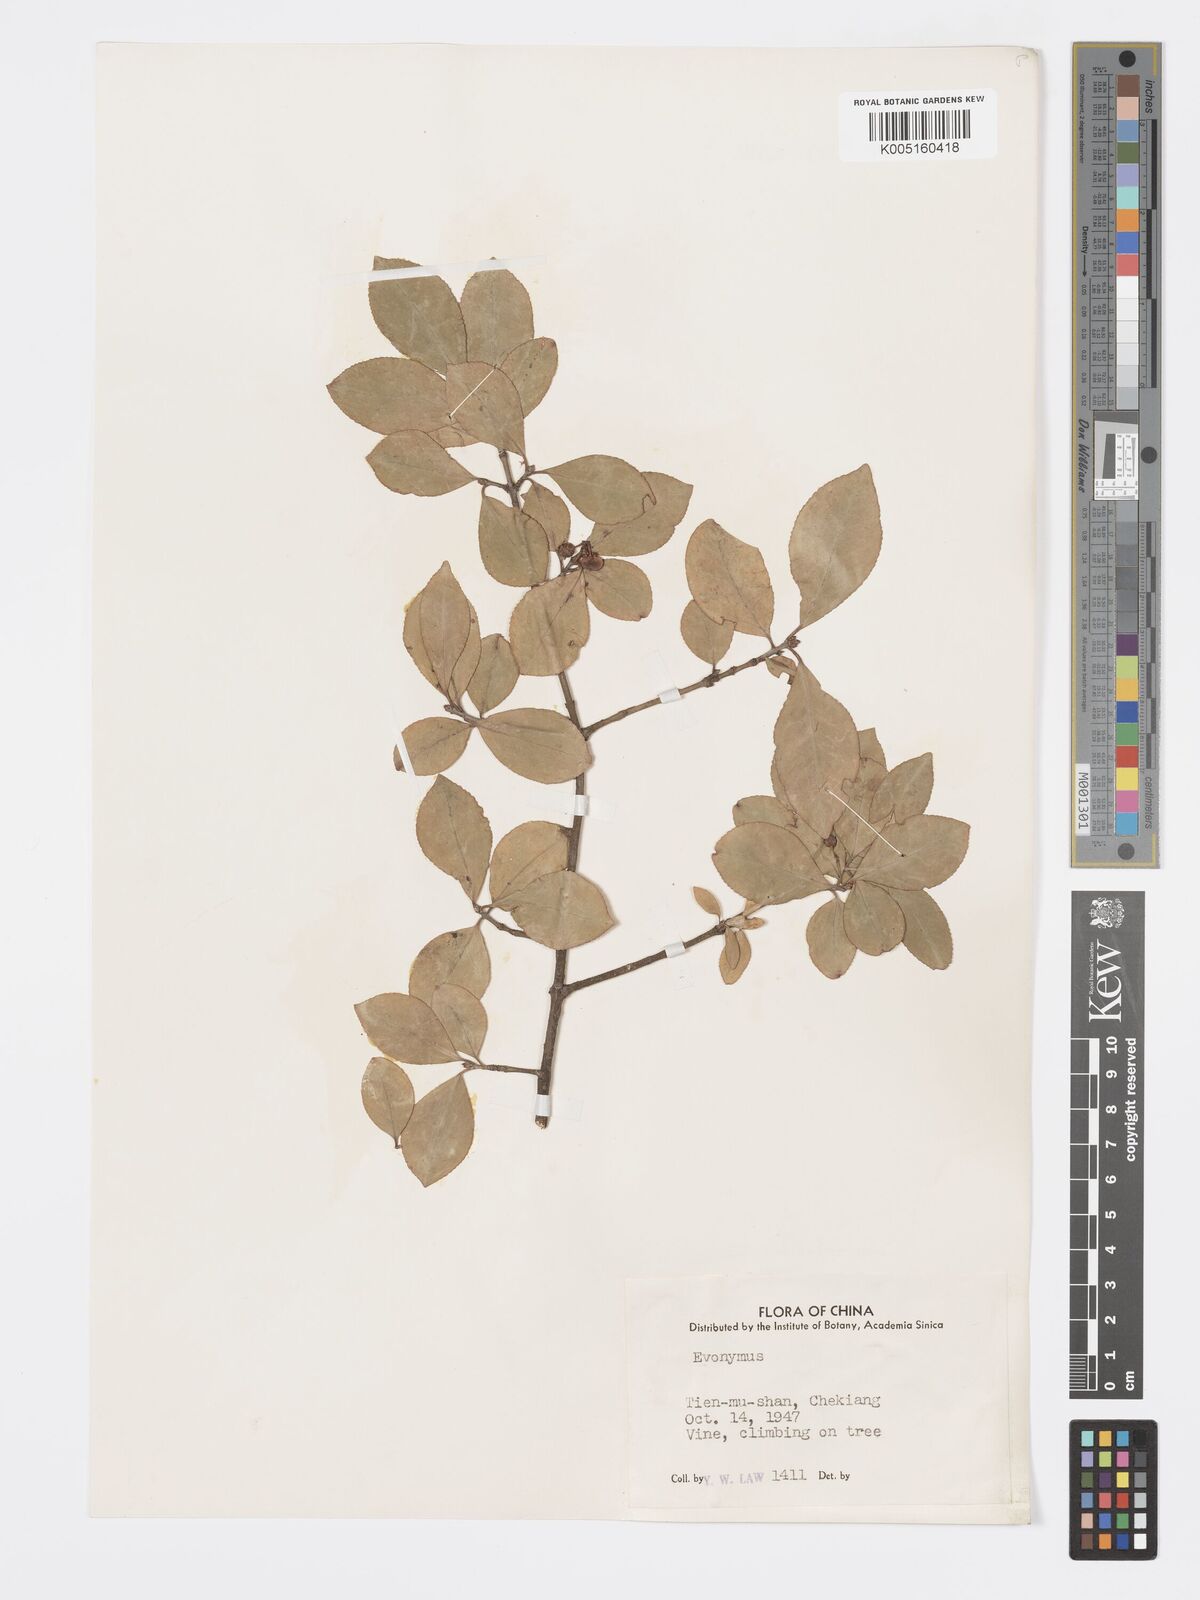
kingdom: Plantae
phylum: Tracheophyta
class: Magnoliopsida
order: Celastrales
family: Celastraceae
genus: Euonymus
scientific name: Euonymus
